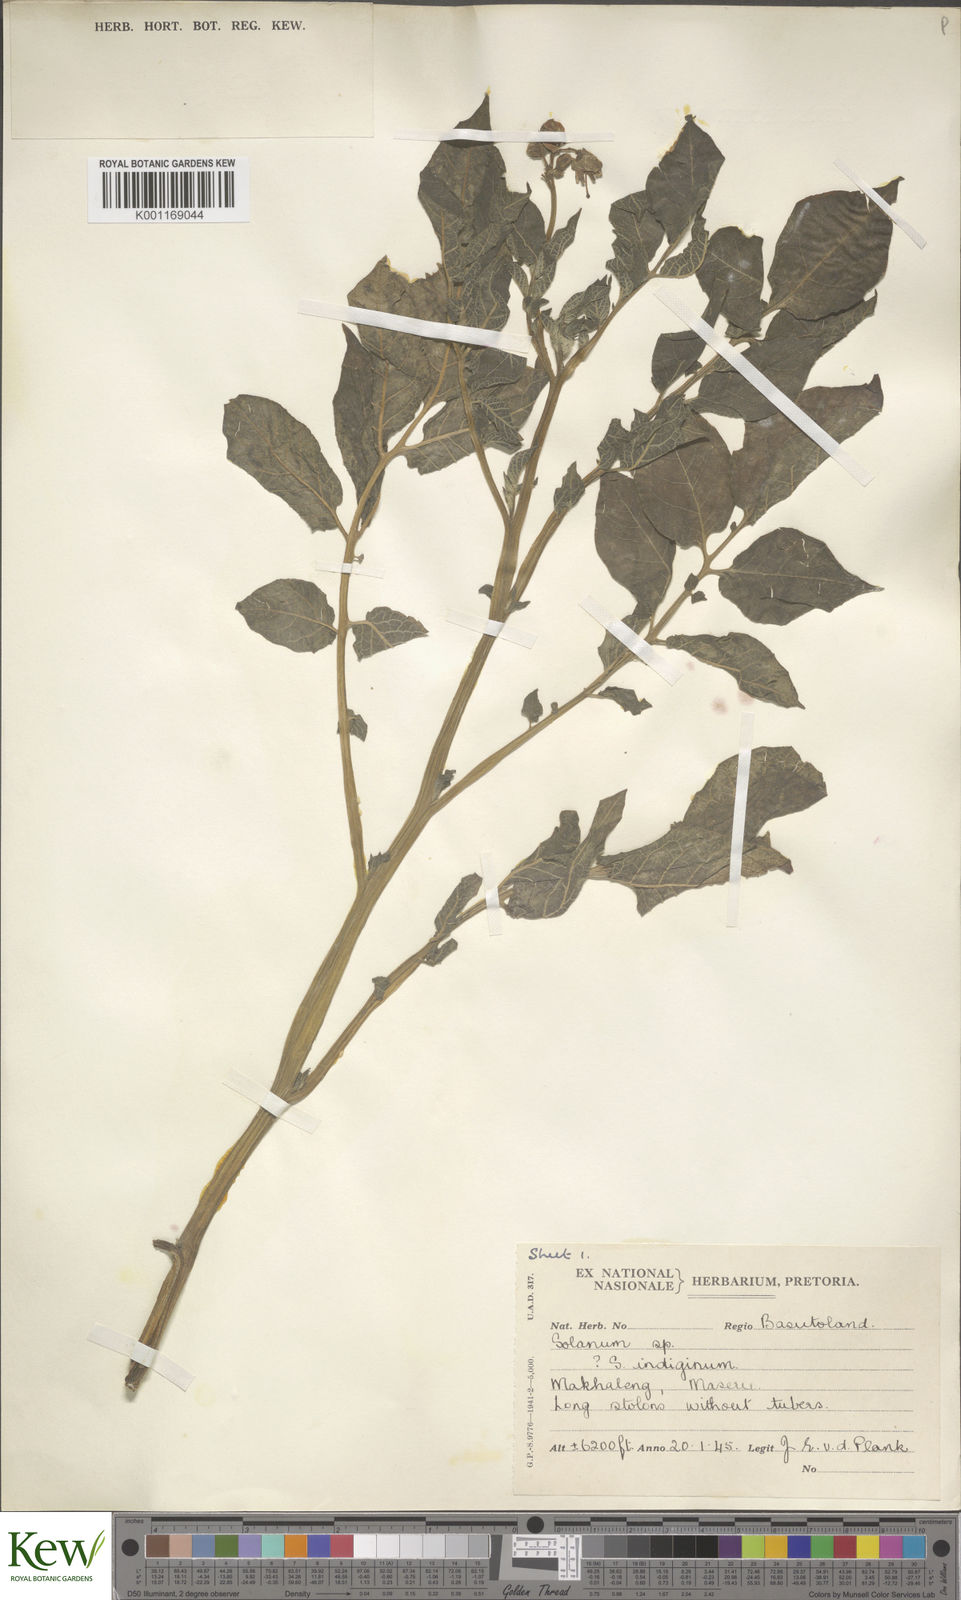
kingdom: Plantae
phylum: Tracheophyta
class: Magnoliopsida
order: Solanales
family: Solanaceae
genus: Solanum
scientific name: Solanum
